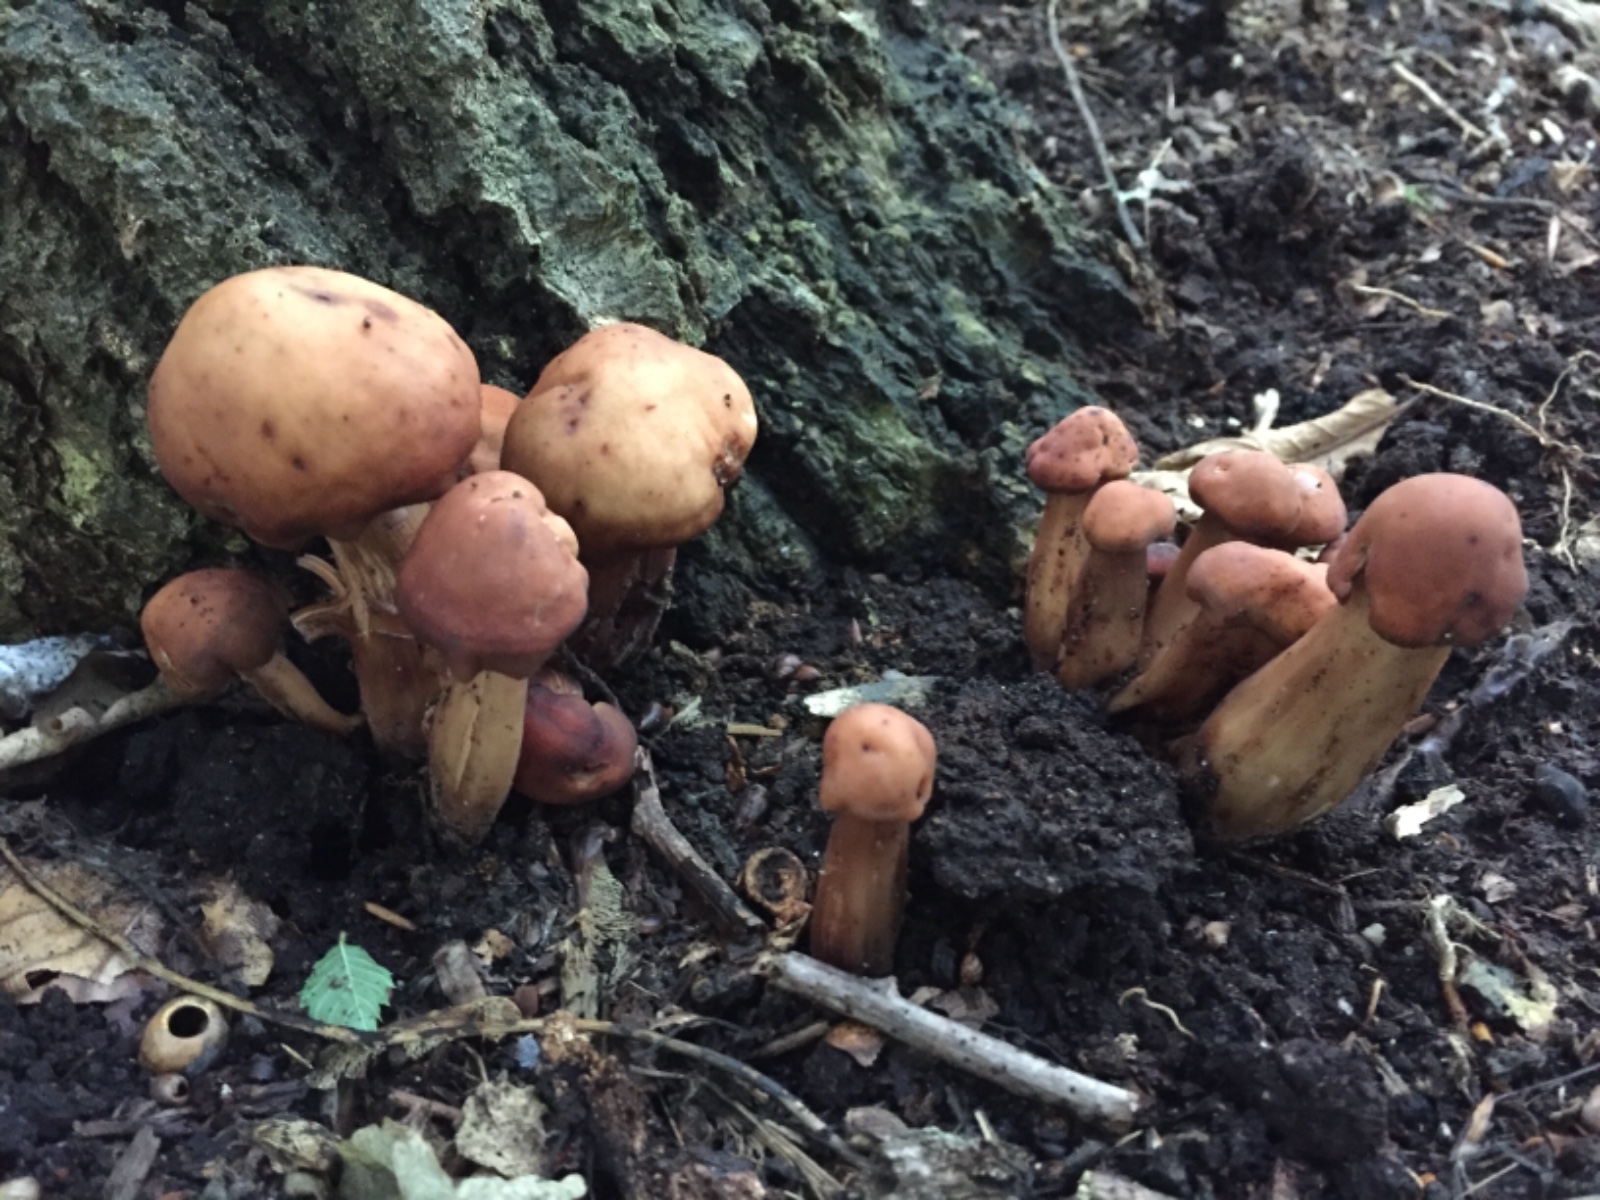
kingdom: Fungi
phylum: Basidiomycota
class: Agaricomycetes
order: Agaricales
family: Omphalotaceae
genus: Gymnopus
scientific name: Gymnopus fusipes
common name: tenstokket fladhat
